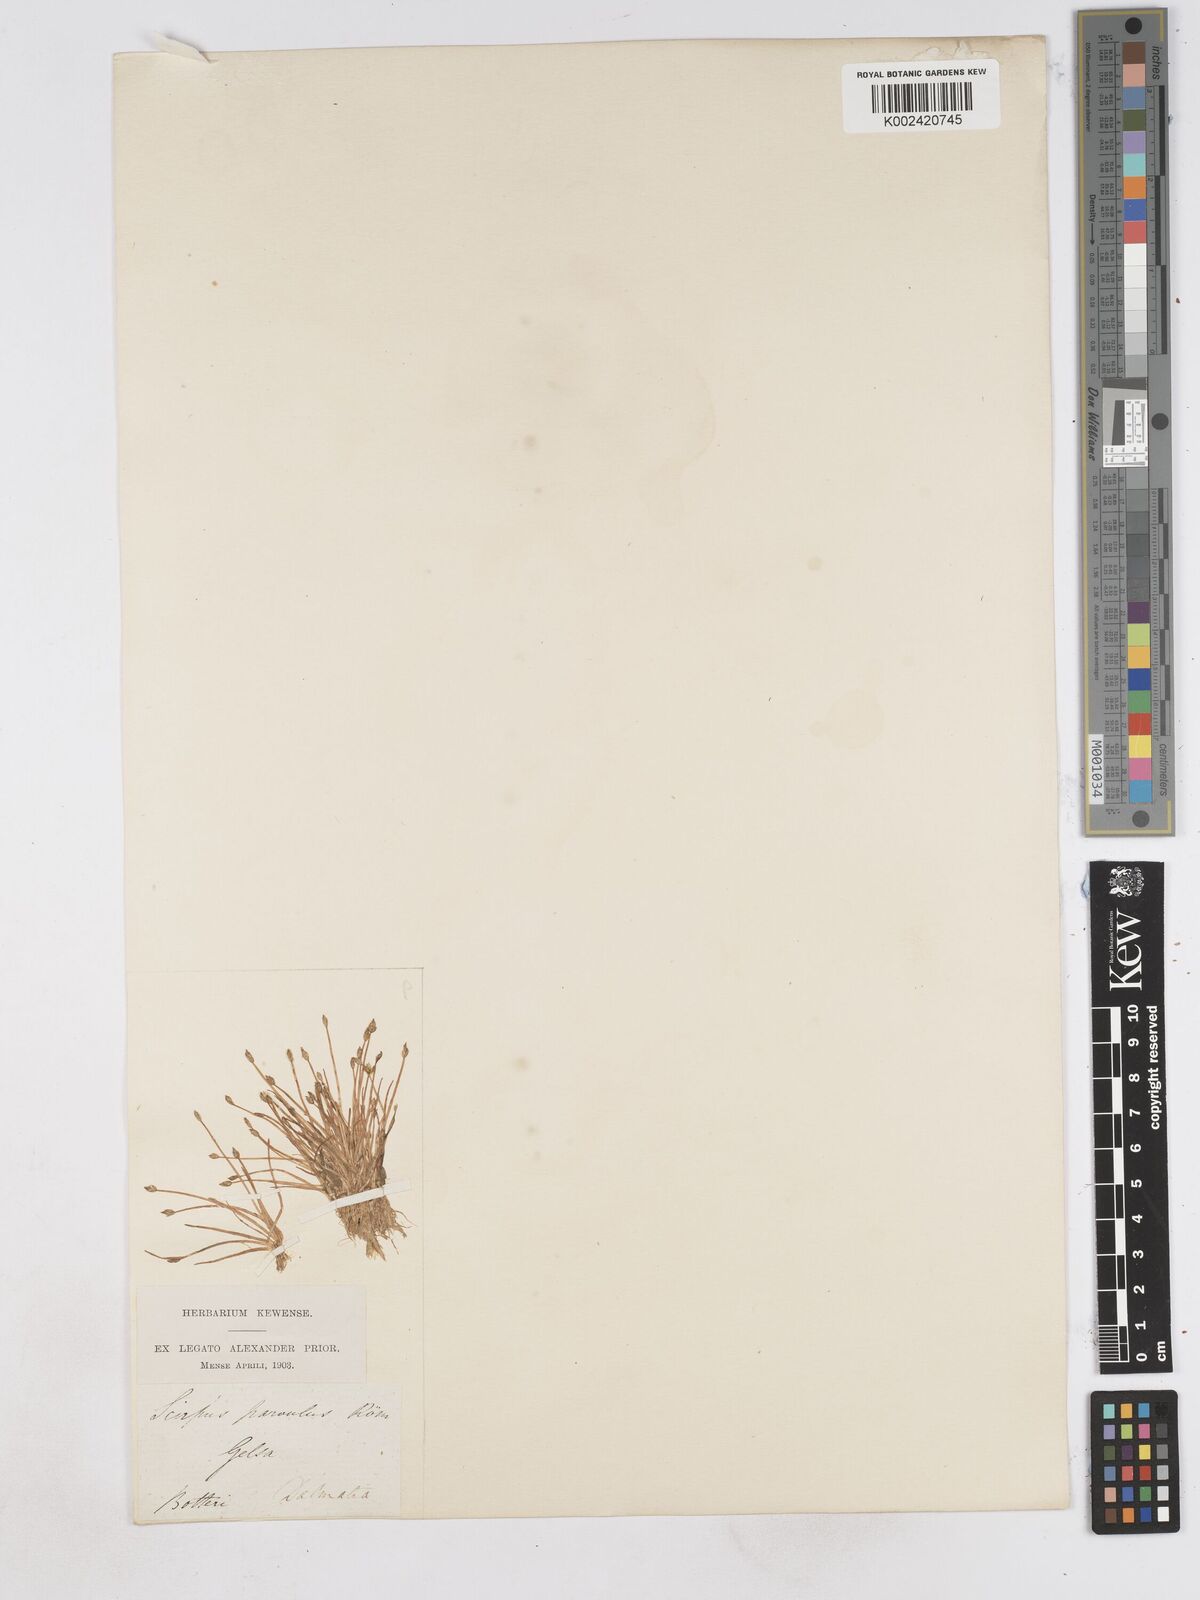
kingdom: Plantae
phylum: Tracheophyta
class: Liliopsida
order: Poales
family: Cyperaceae
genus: Eleocharis
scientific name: Eleocharis parvula
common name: Dwarf spike-rush
